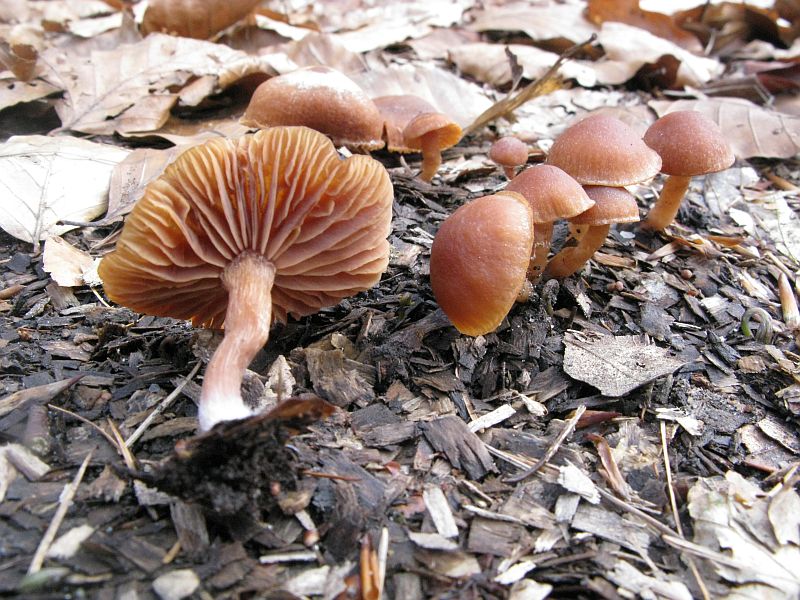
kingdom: Fungi
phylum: Basidiomycota
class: Agaricomycetes
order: Agaricales
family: Tubariaceae
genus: Tubaria
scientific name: Tubaria furfuracea
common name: kliddet fnughat
